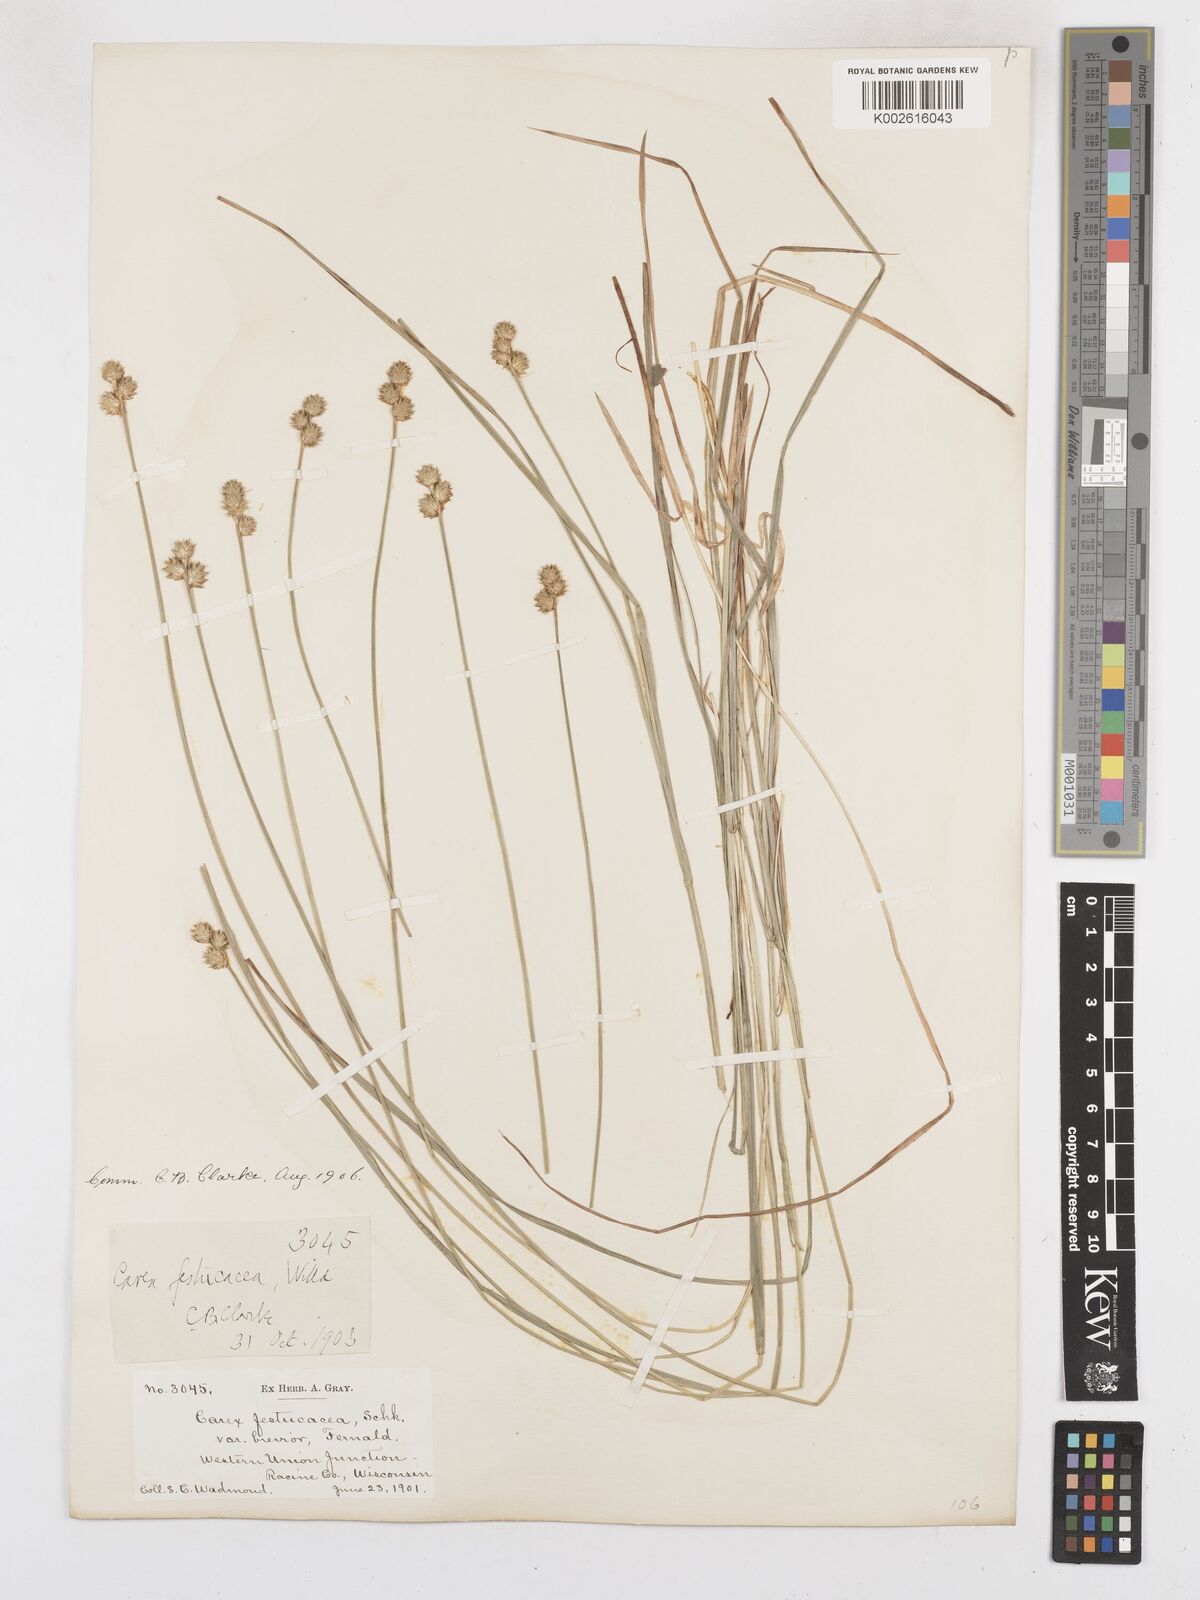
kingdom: Plantae
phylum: Tracheophyta
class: Liliopsida
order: Poales
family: Cyperaceae
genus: Carex
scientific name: Carex festucacea
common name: Fescue oval sedge
